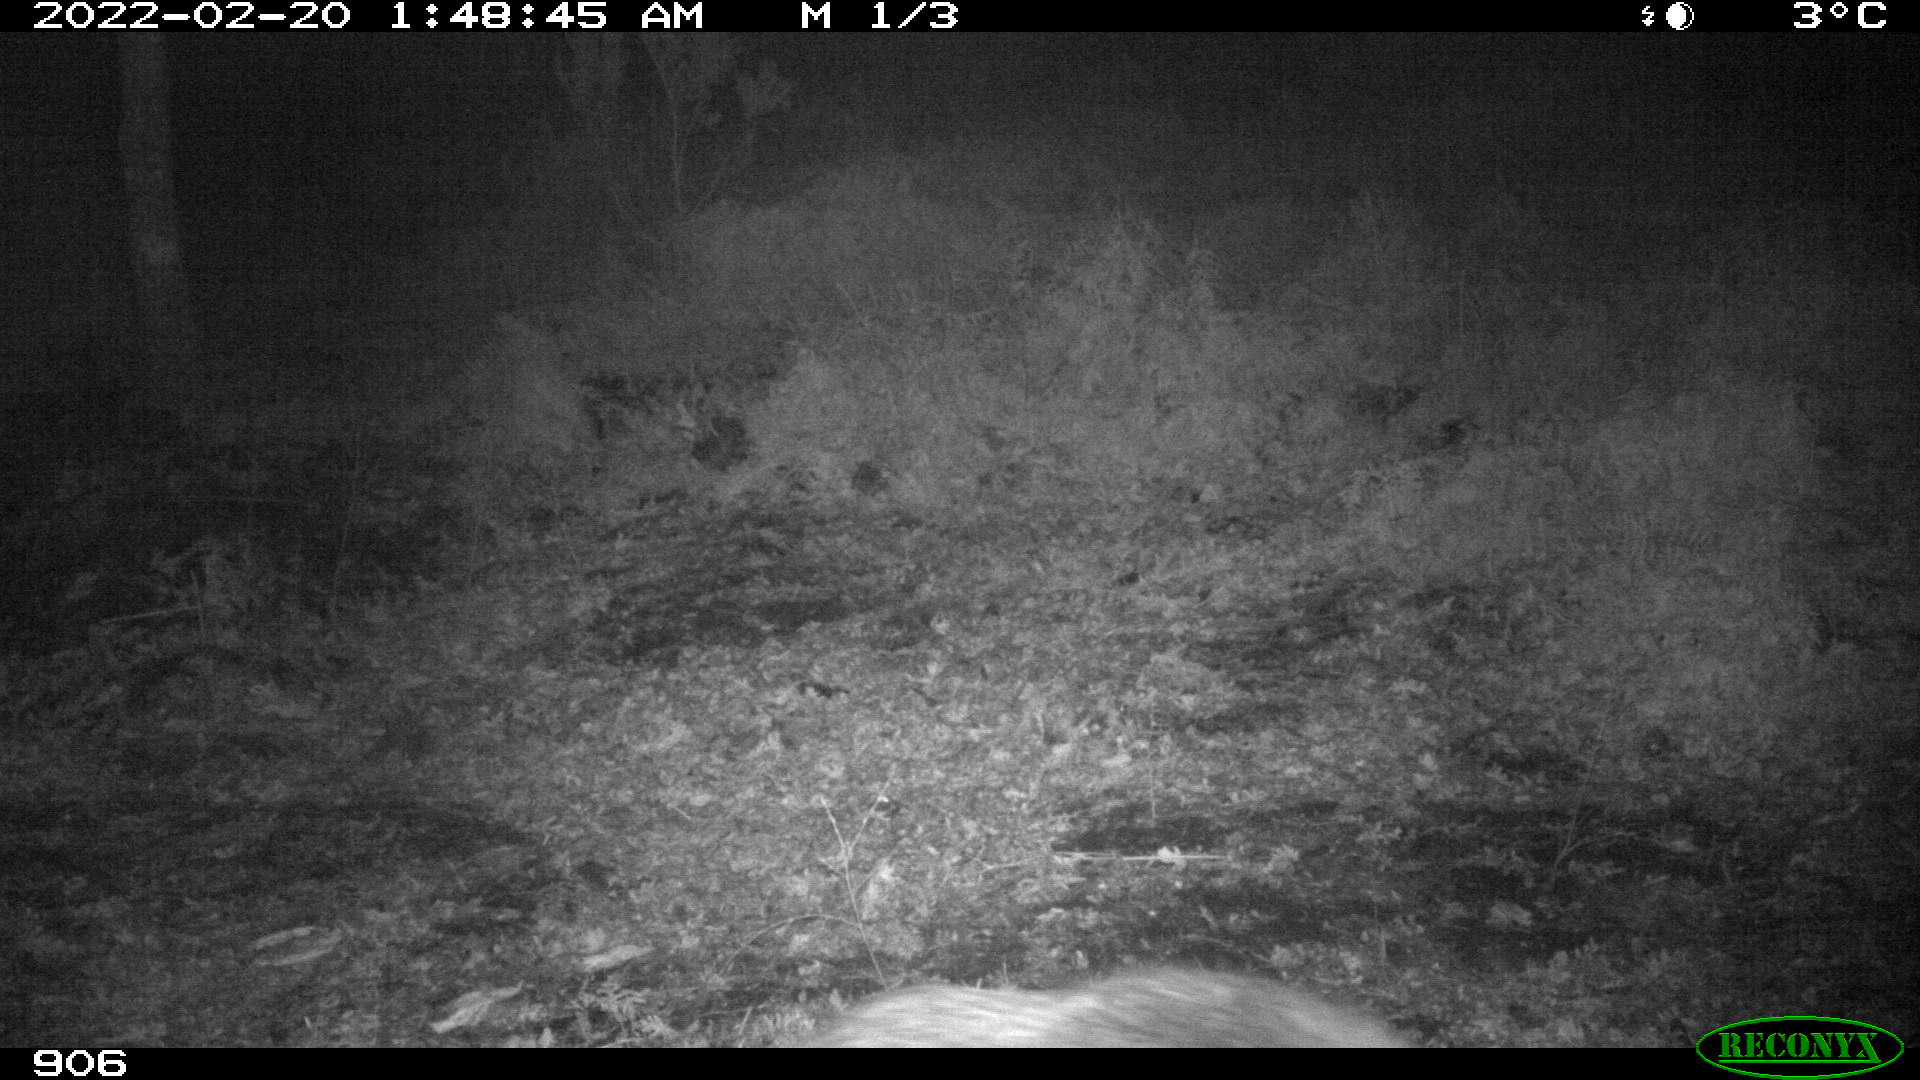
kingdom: Animalia
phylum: Chordata
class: Mammalia
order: Artiodactyla
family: Suidae
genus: Sus
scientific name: Sus scrofa
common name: Wild boar
